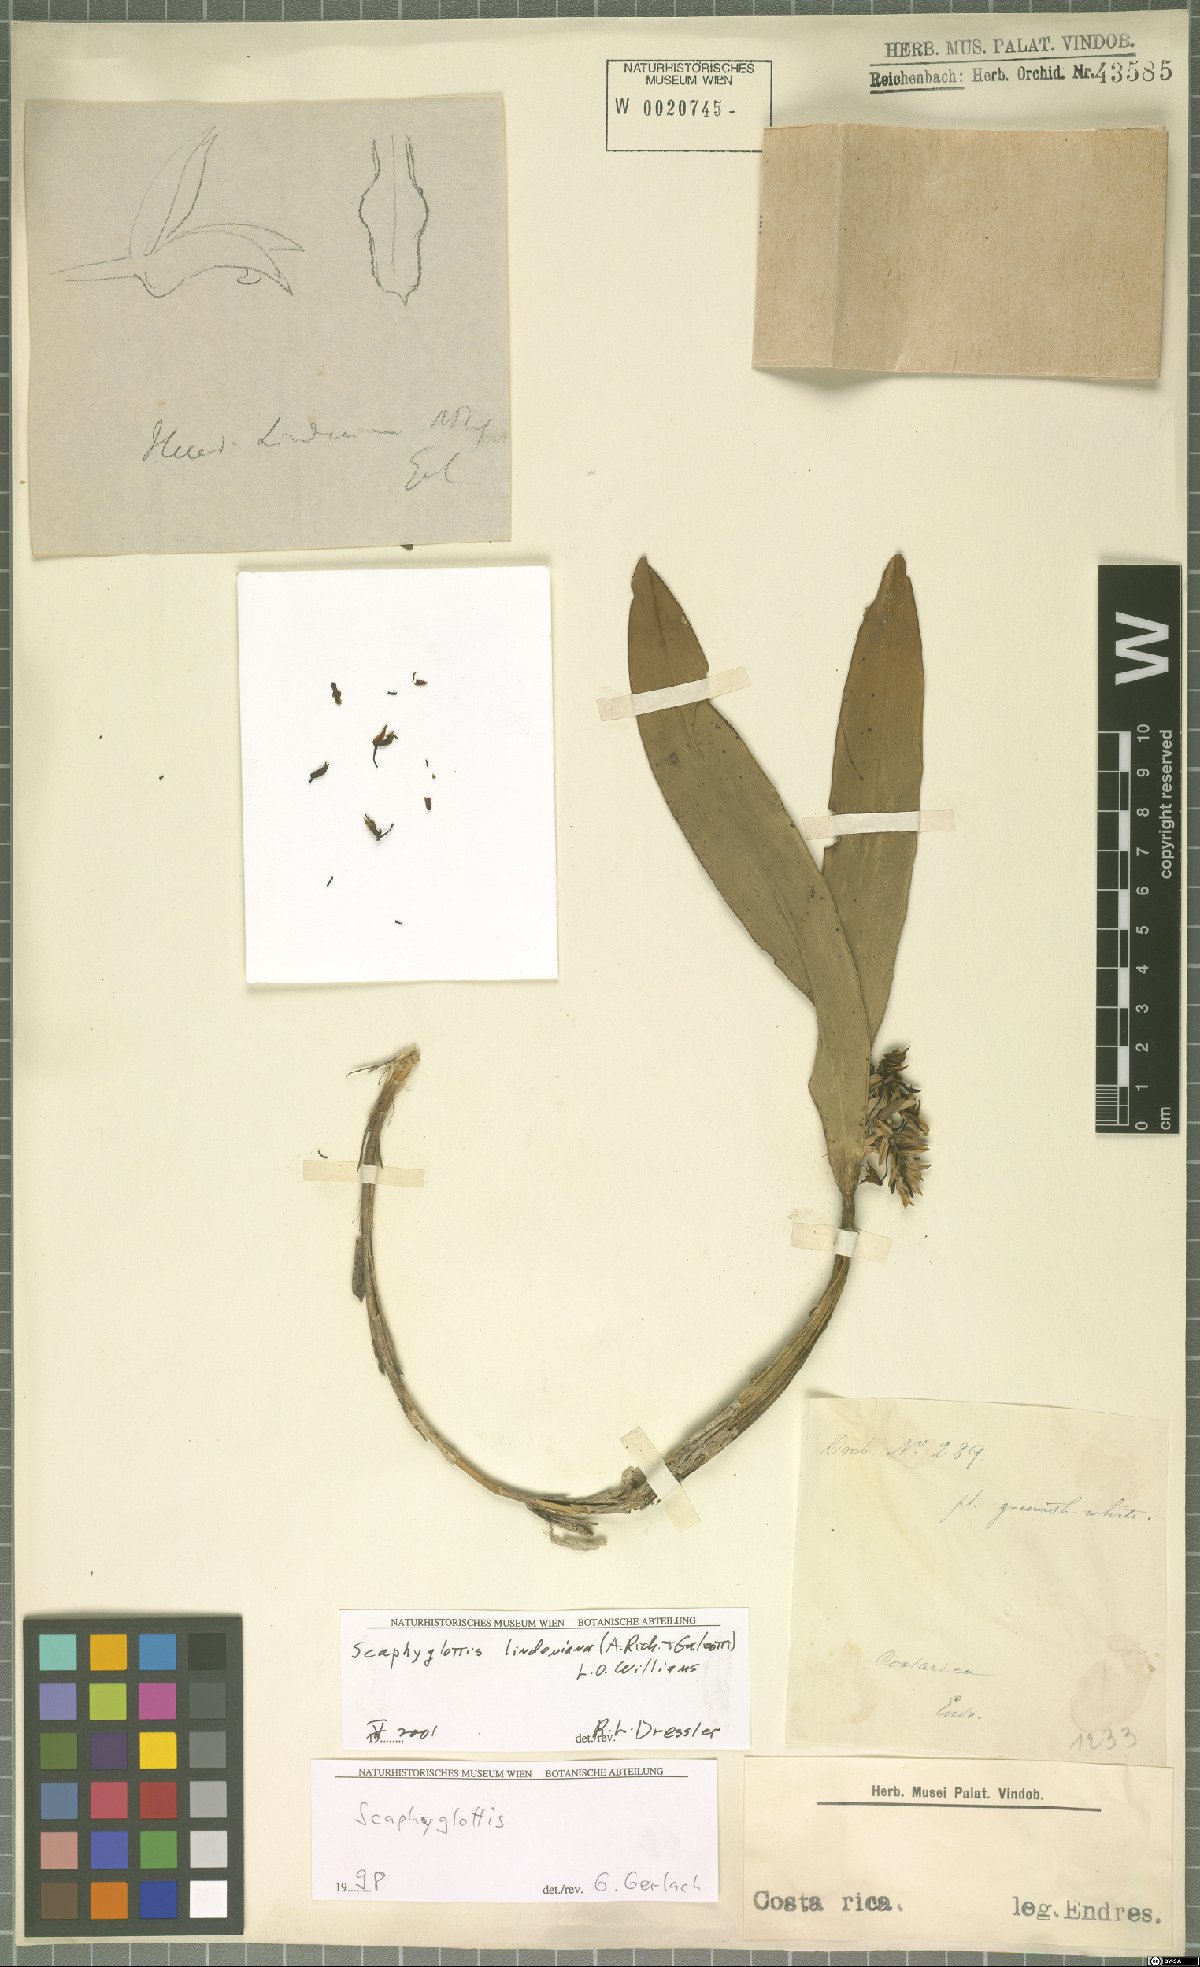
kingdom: Plantae
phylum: Tracheophyta
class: Liliopsida
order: Asparagales
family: Orchidaceae
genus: Scaphyglottis
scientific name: Scaphyglottis lindeniana
